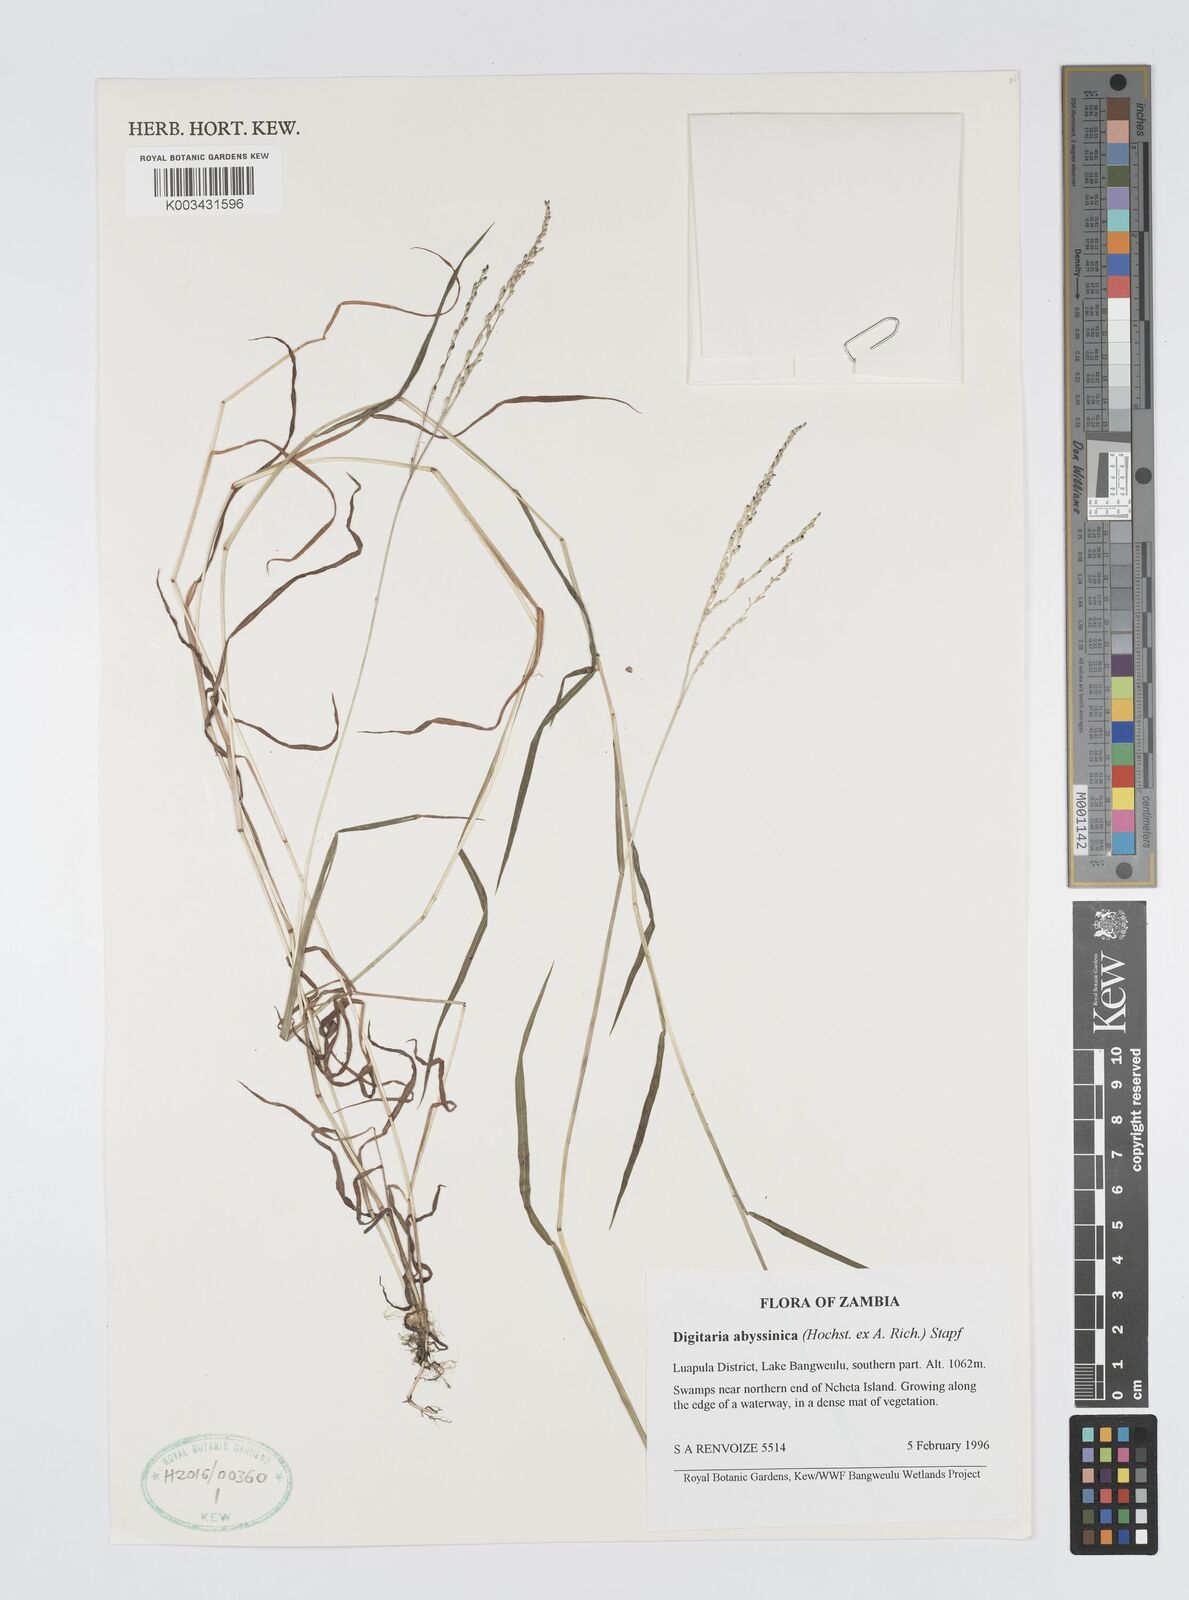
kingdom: Plantae
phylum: Tracheophyta
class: Liliopsida
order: Poales
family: Poaceae
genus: Digitaria
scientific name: Digitaria abyssinica
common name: African couchgrass
